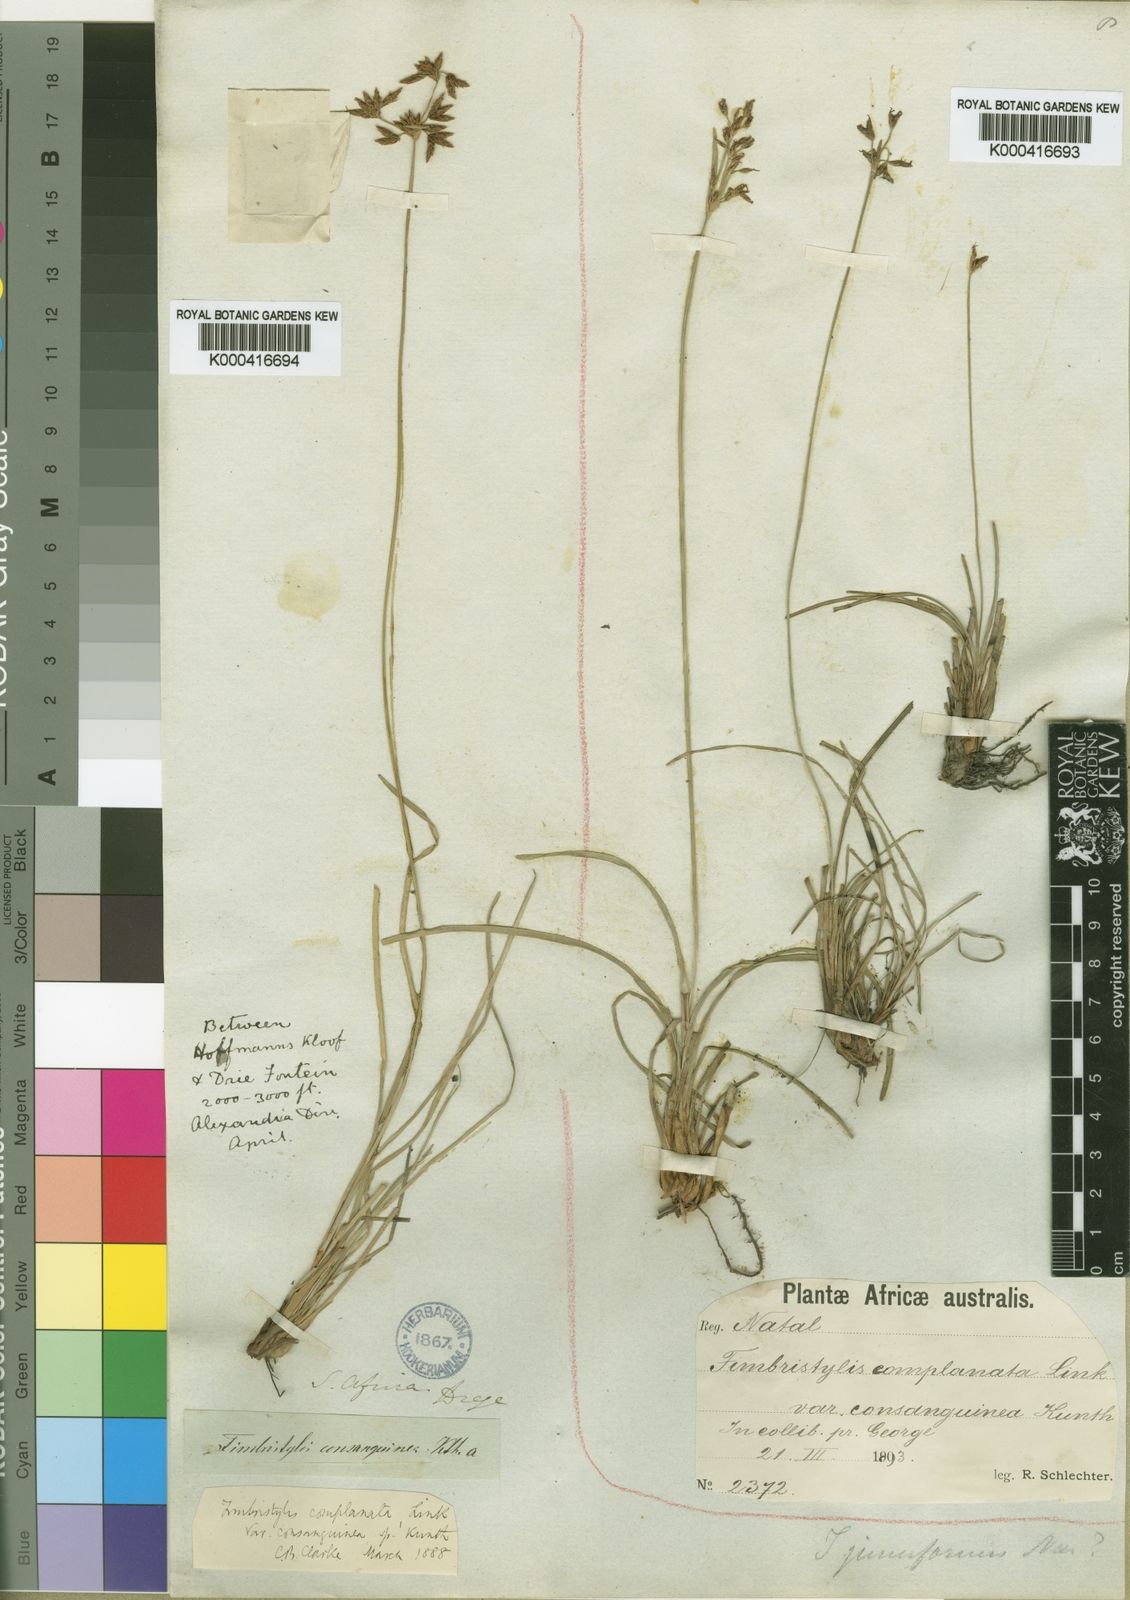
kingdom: Plantae
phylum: Tracheophyta
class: Liliopsida
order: Poales
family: Cyperaceae
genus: Fimbristylis
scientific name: Fimbristylis complanata
